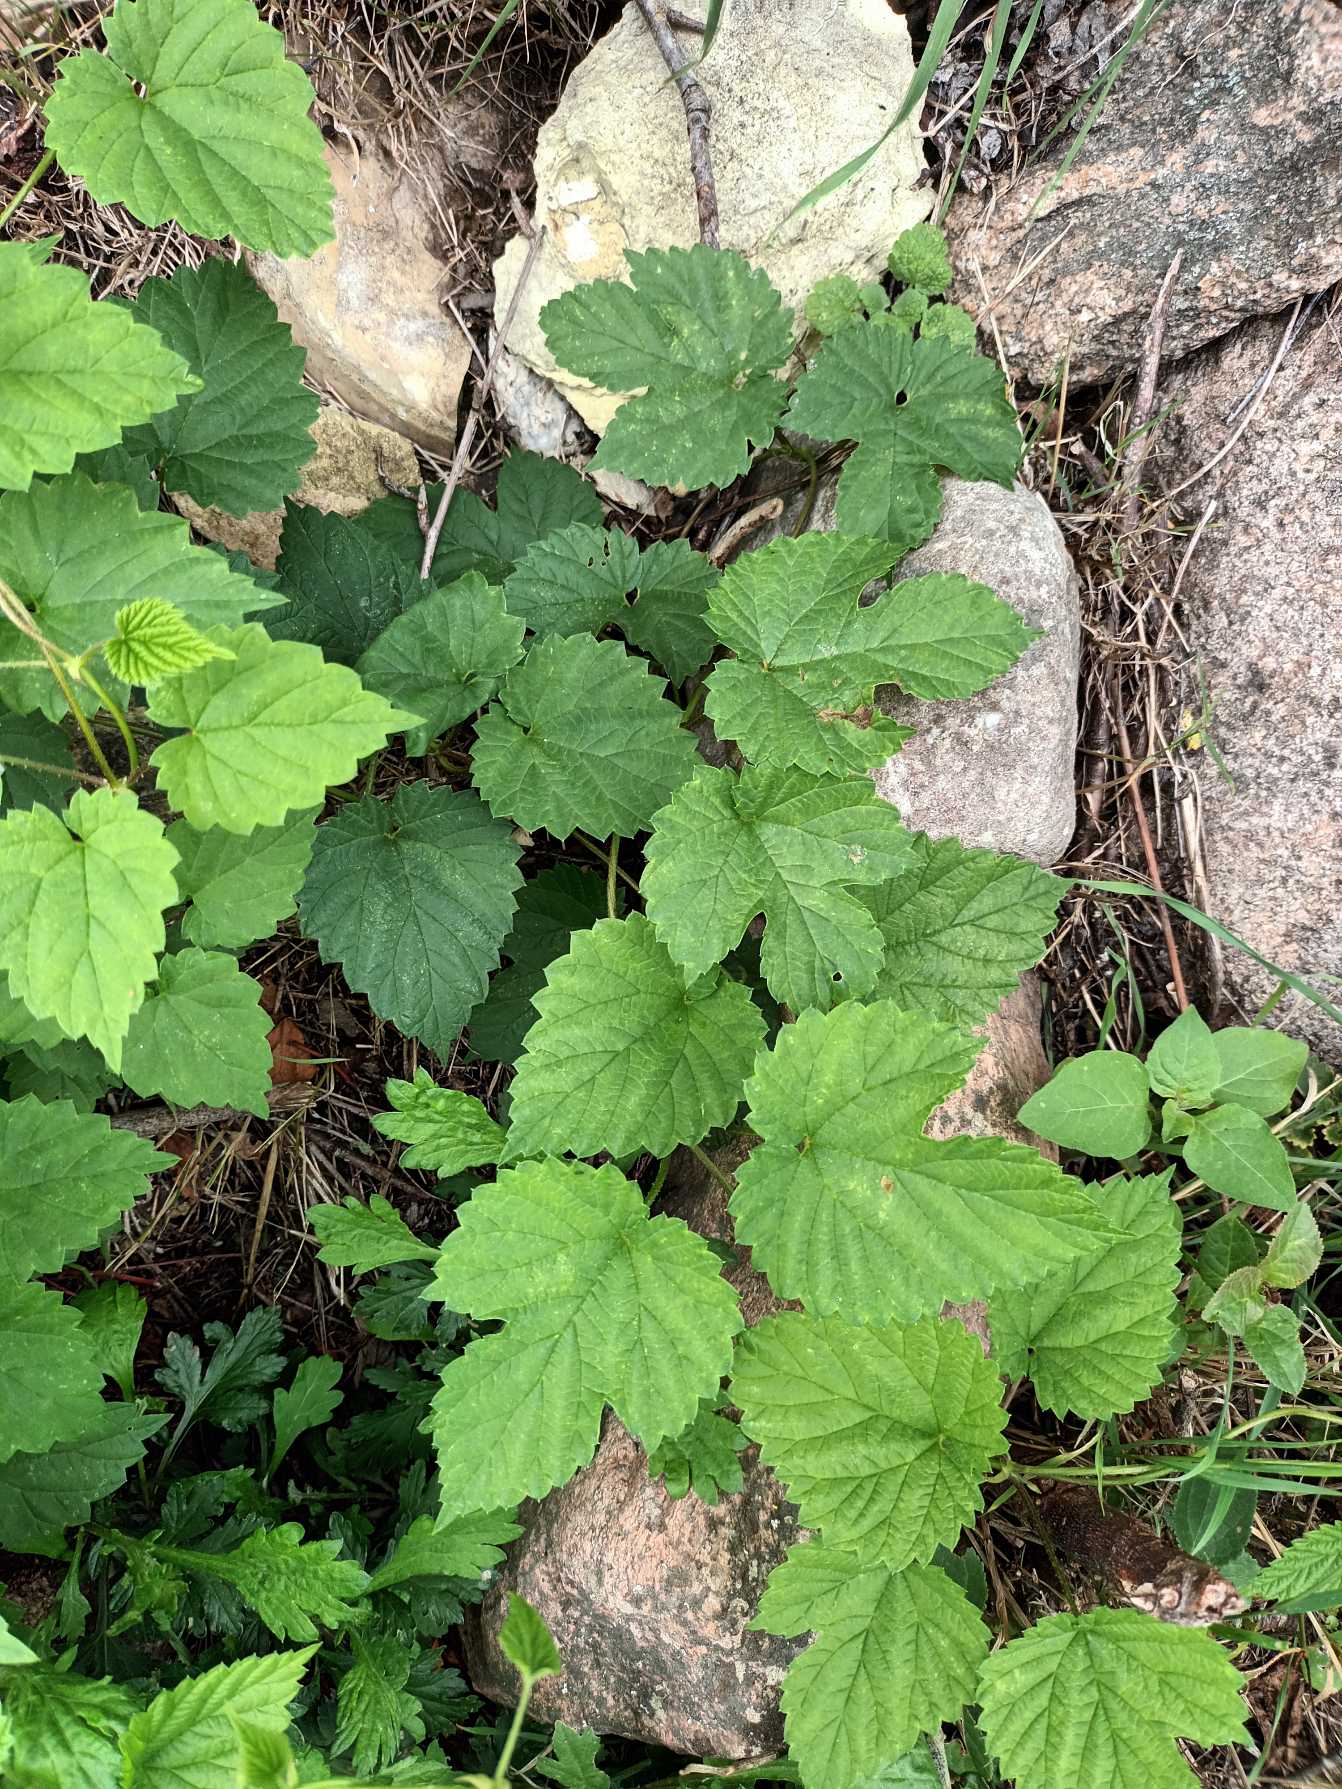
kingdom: Plantae
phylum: Tracheophyta
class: Magnoliopsida
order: Rosales
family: Cannabaceae
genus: Humulus
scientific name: Humulus lupulus
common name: Humle
